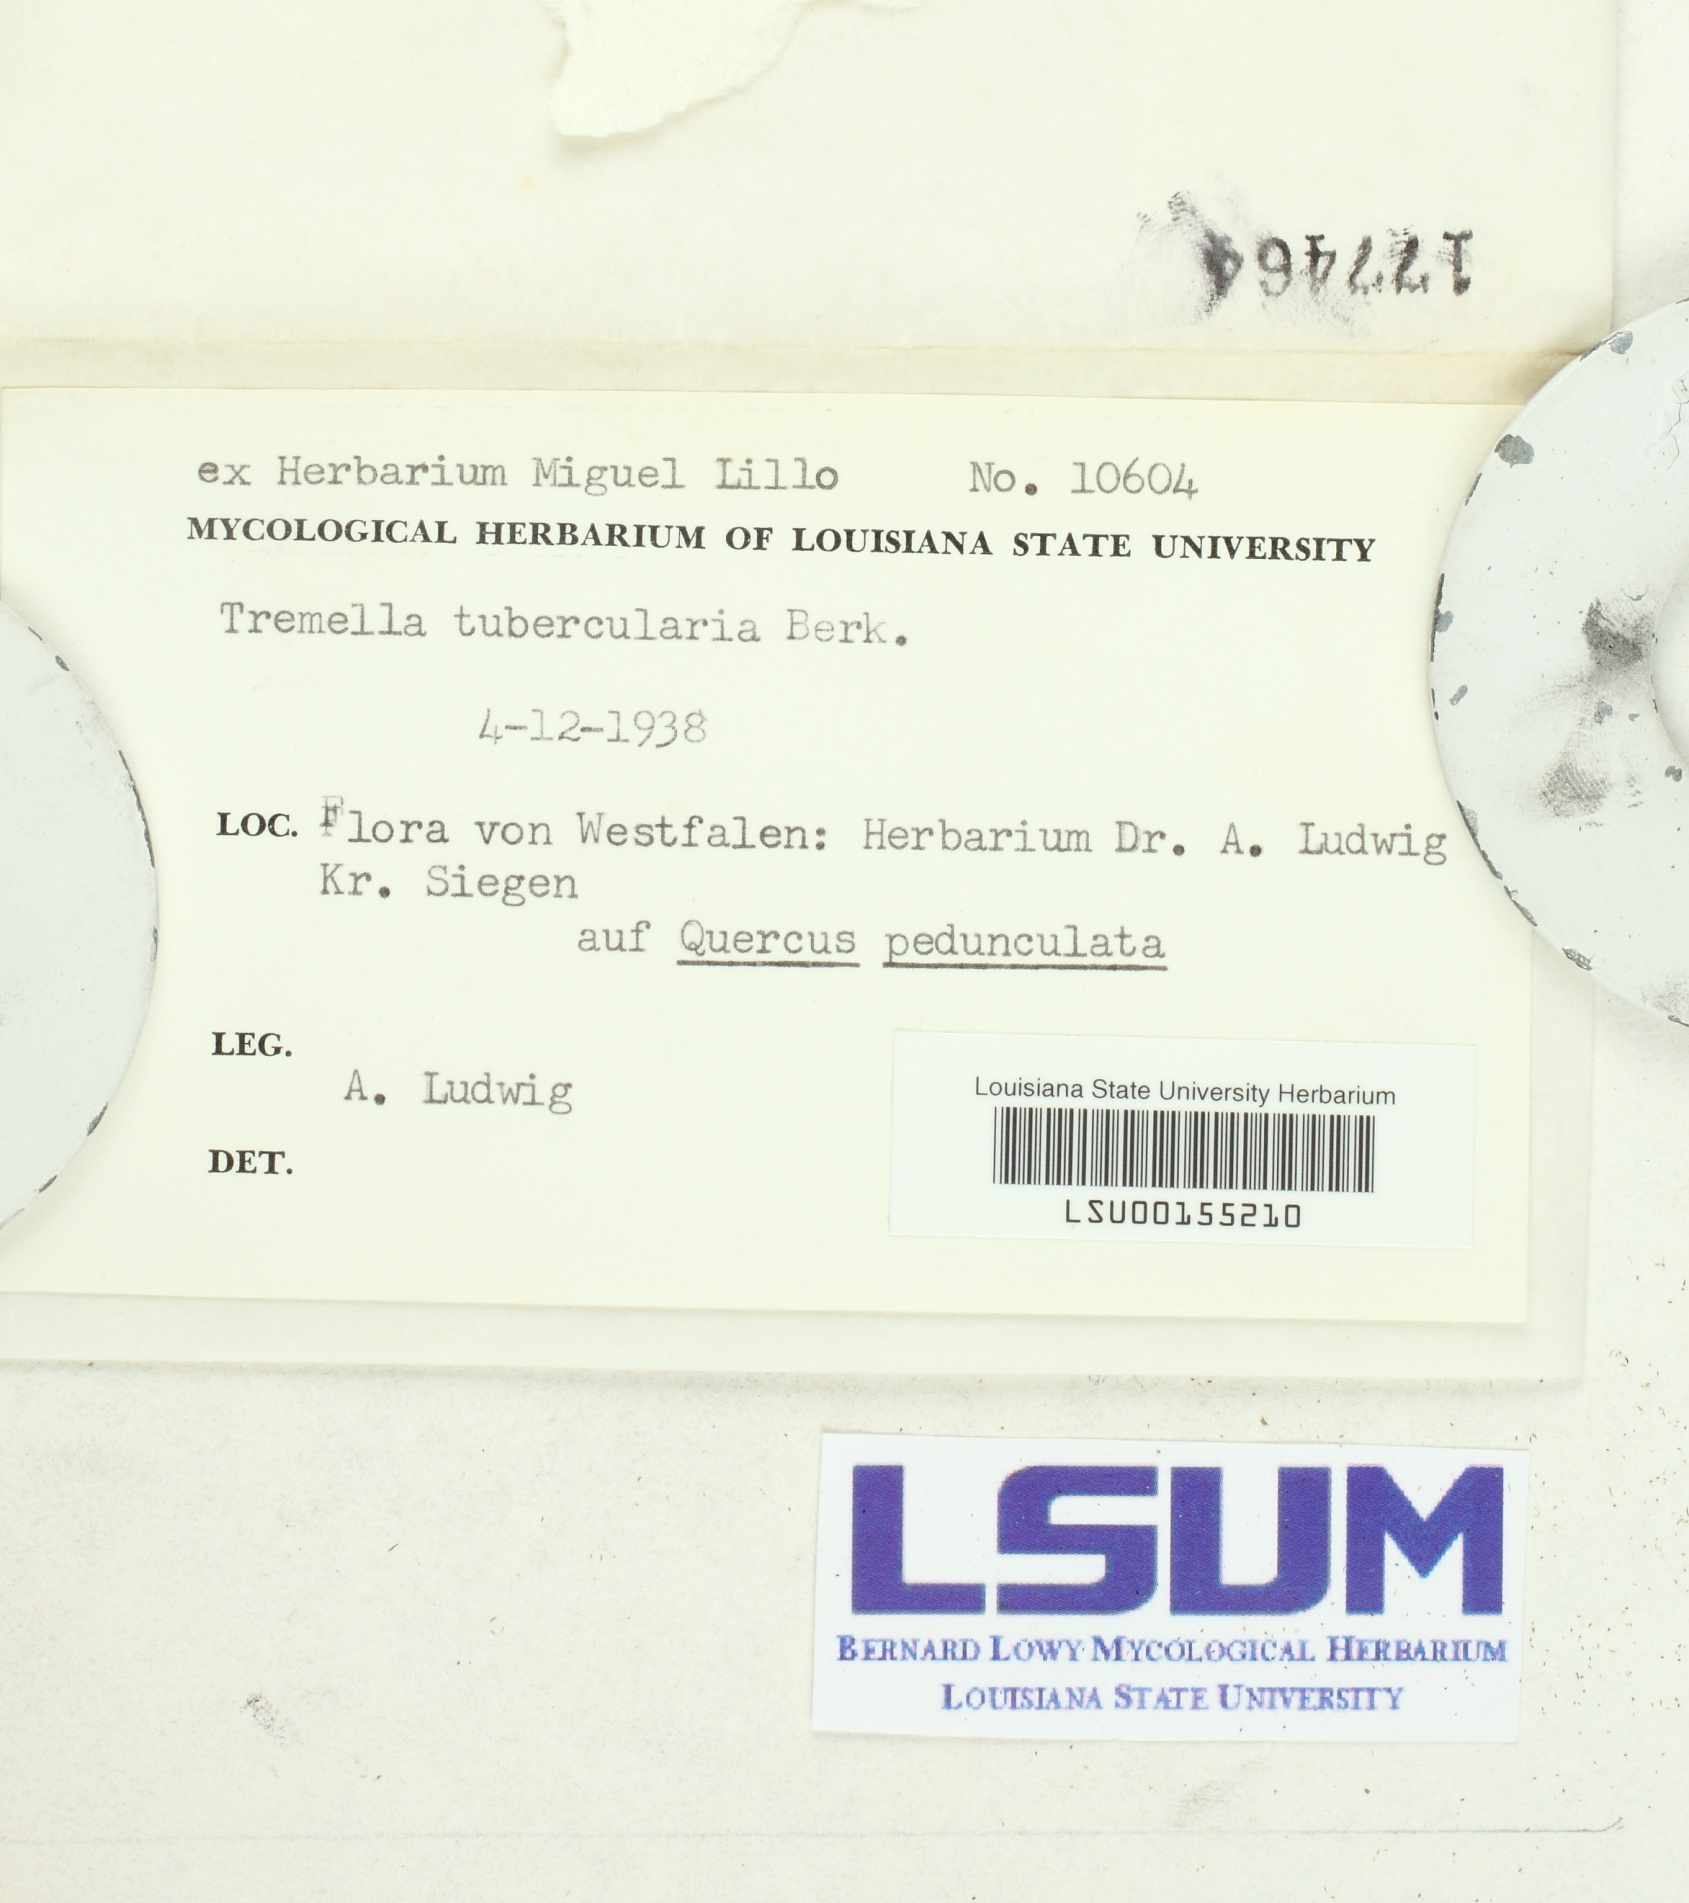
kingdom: Fungi
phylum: Basidiomycota
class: Tremellomycetes
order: Tremellales
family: Tremellaceae
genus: Tremella
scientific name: Tremella globispora
